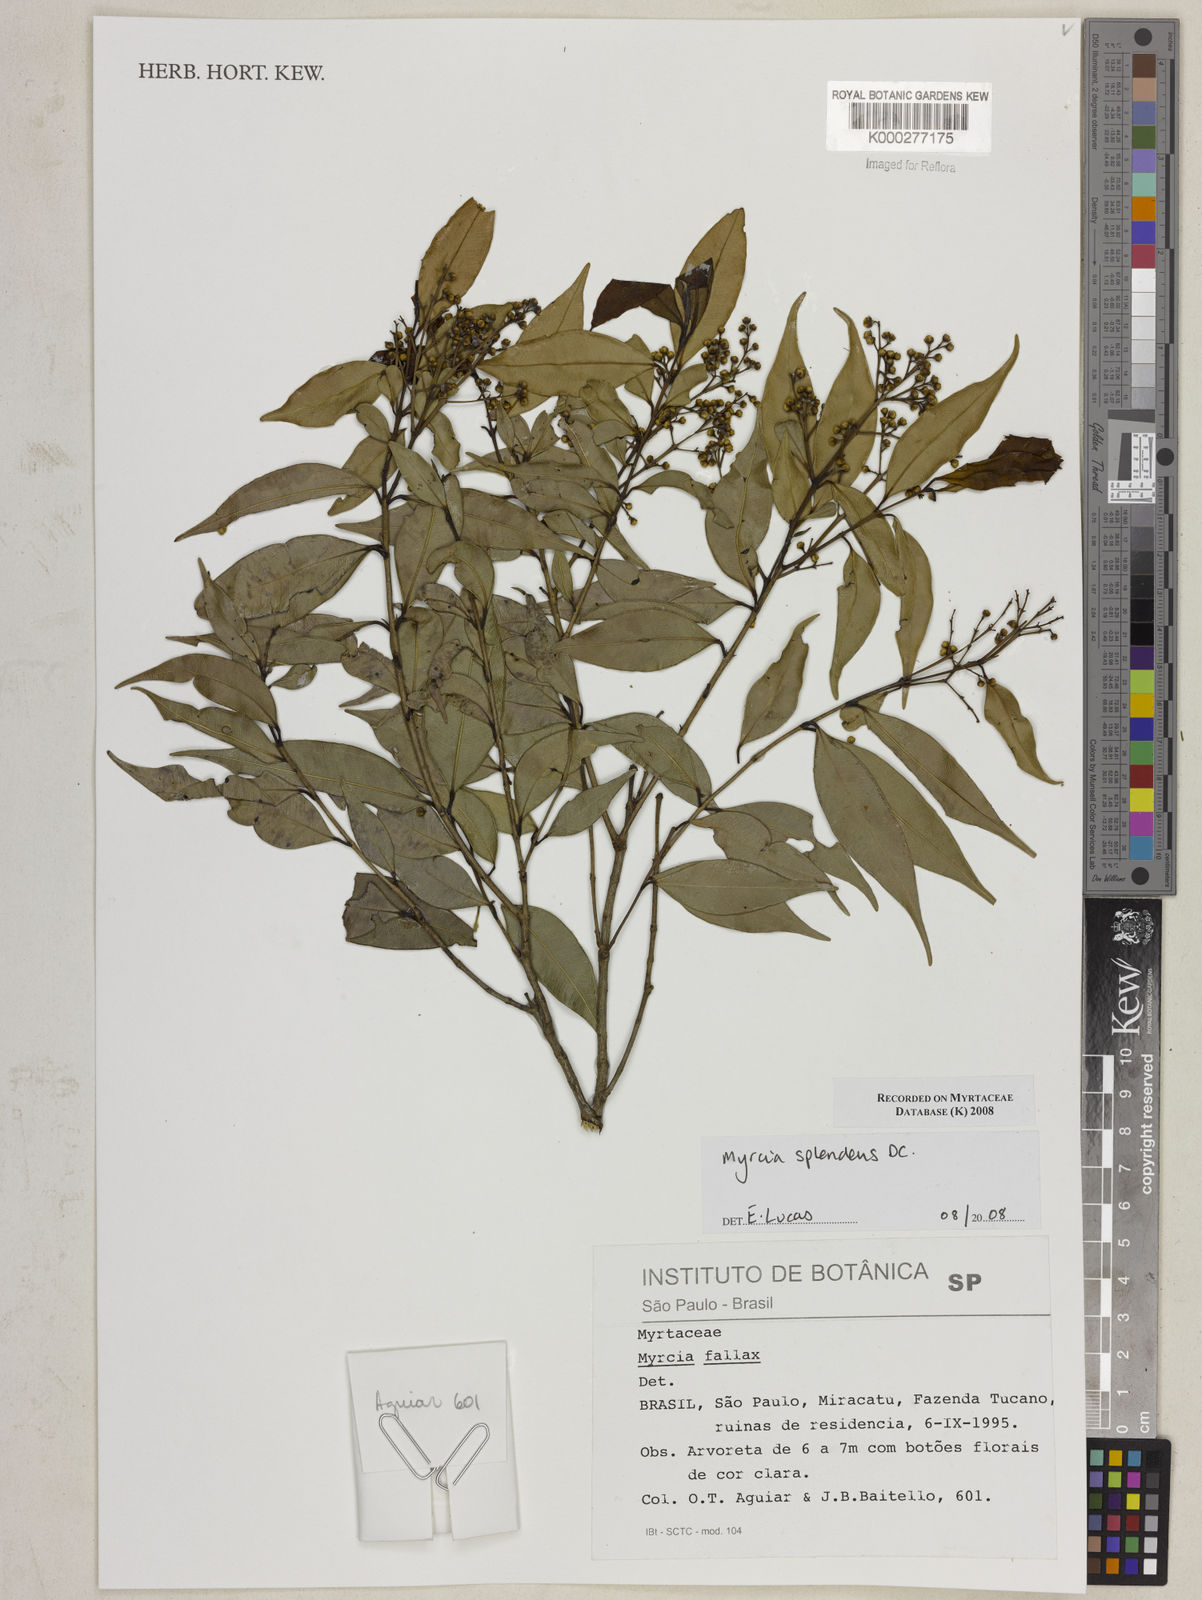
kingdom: Plantae
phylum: Tracheophyta
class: Magnoliopsida
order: Myrtales
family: Myrtaceae
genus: Myrcia
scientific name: Myrcia splendens
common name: Surinam cherry
